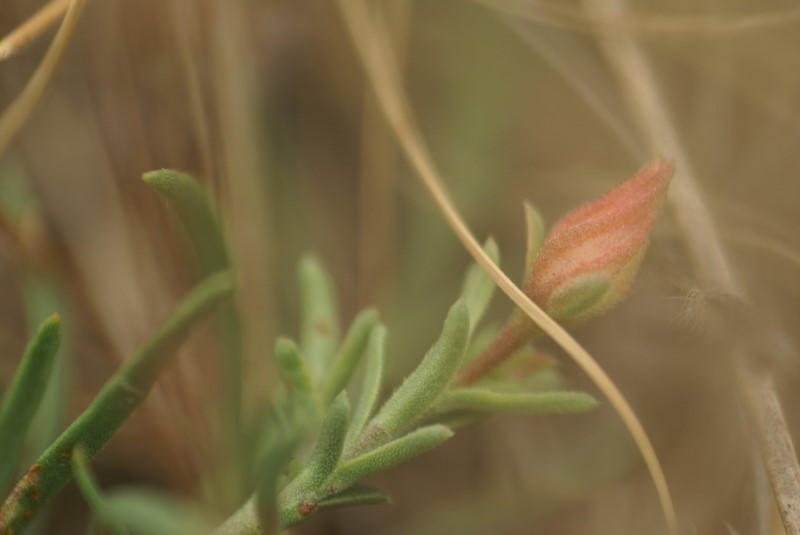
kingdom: Plantae
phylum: Tracheophyta
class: Magnoliopsida
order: Caryophyllales
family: Portulacaceae
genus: Portulaca
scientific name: Portulaca
